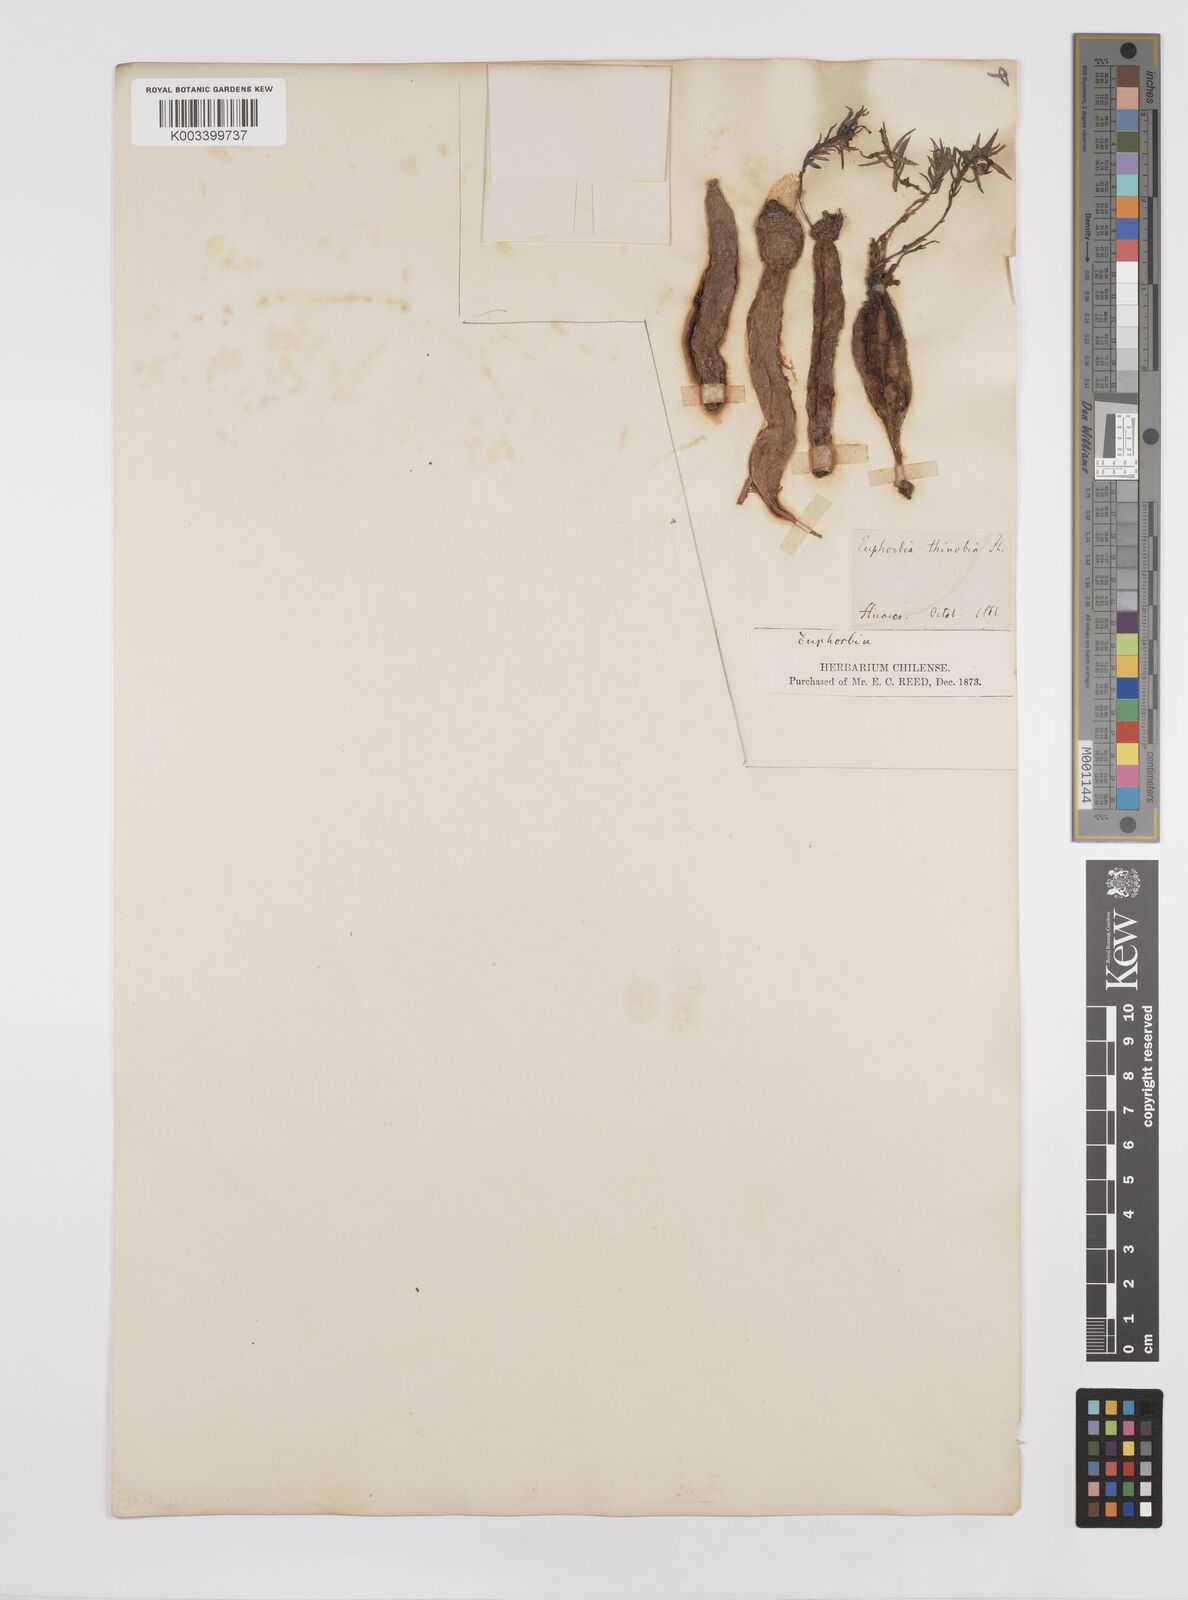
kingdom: Plantae
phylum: Tracheophyta
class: Magnoliopsida
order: Malpighiales
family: Euphorbiaceae
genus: Euphorbia
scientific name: Euphorbia
